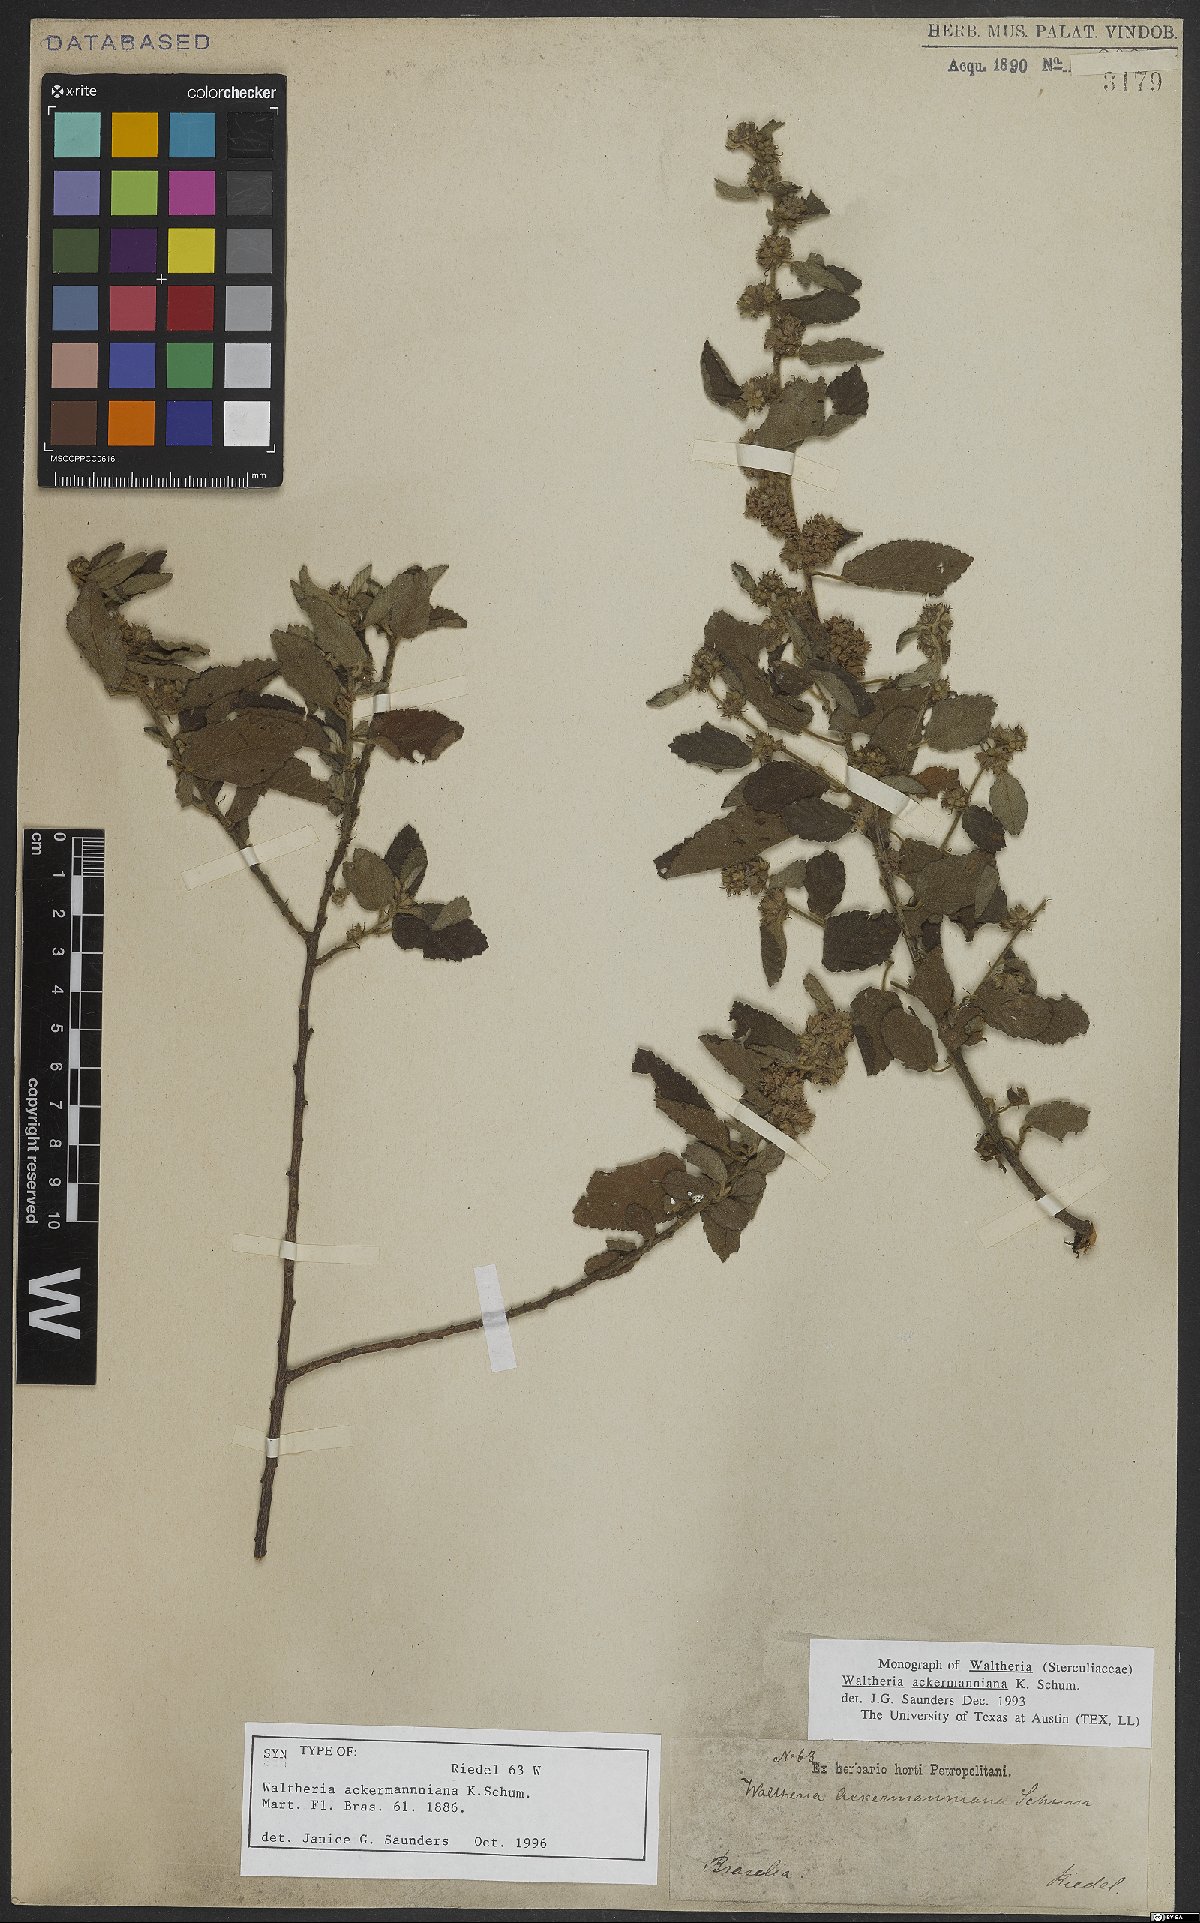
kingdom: Plantae
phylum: Tracheophyta
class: Magnoliopsida
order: Malvales
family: Malvaceae
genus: Waltheria
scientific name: Waltheria ackermanniana
